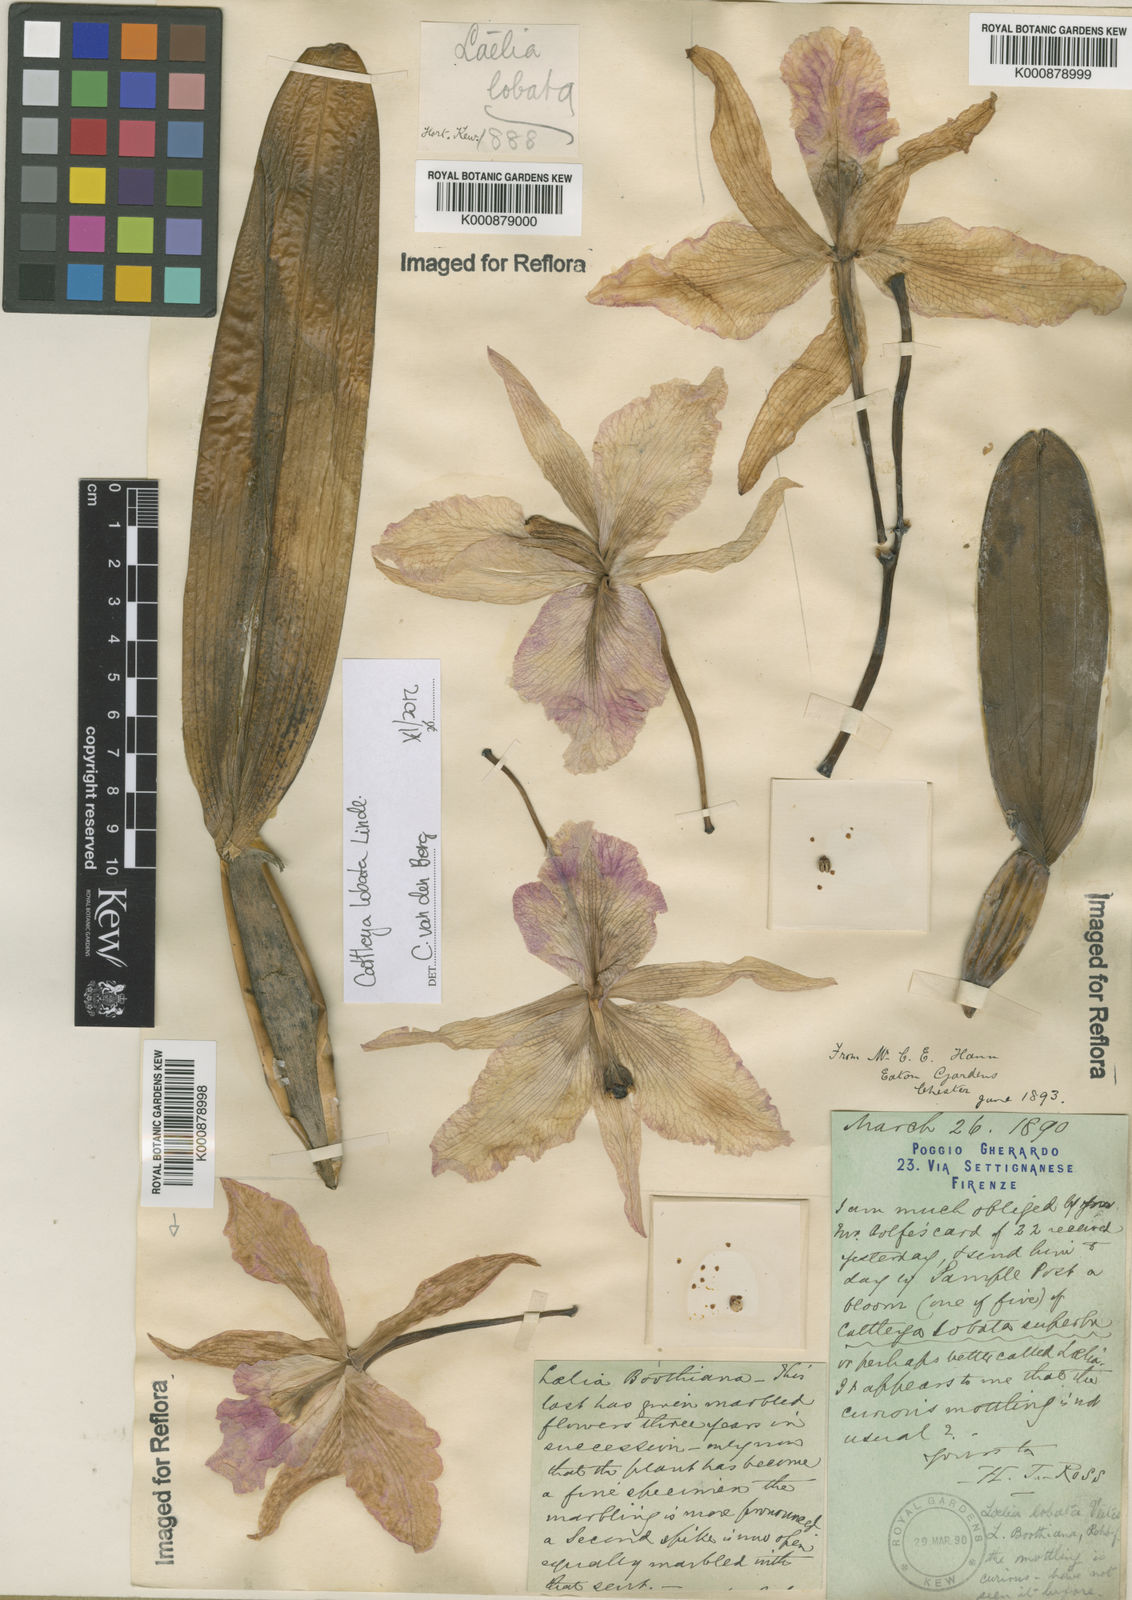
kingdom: Plantae
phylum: Tracheophyta
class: Liliopsida
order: Asparagales
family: Orchidaceae
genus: Cattleya
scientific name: Cattleya lobata
